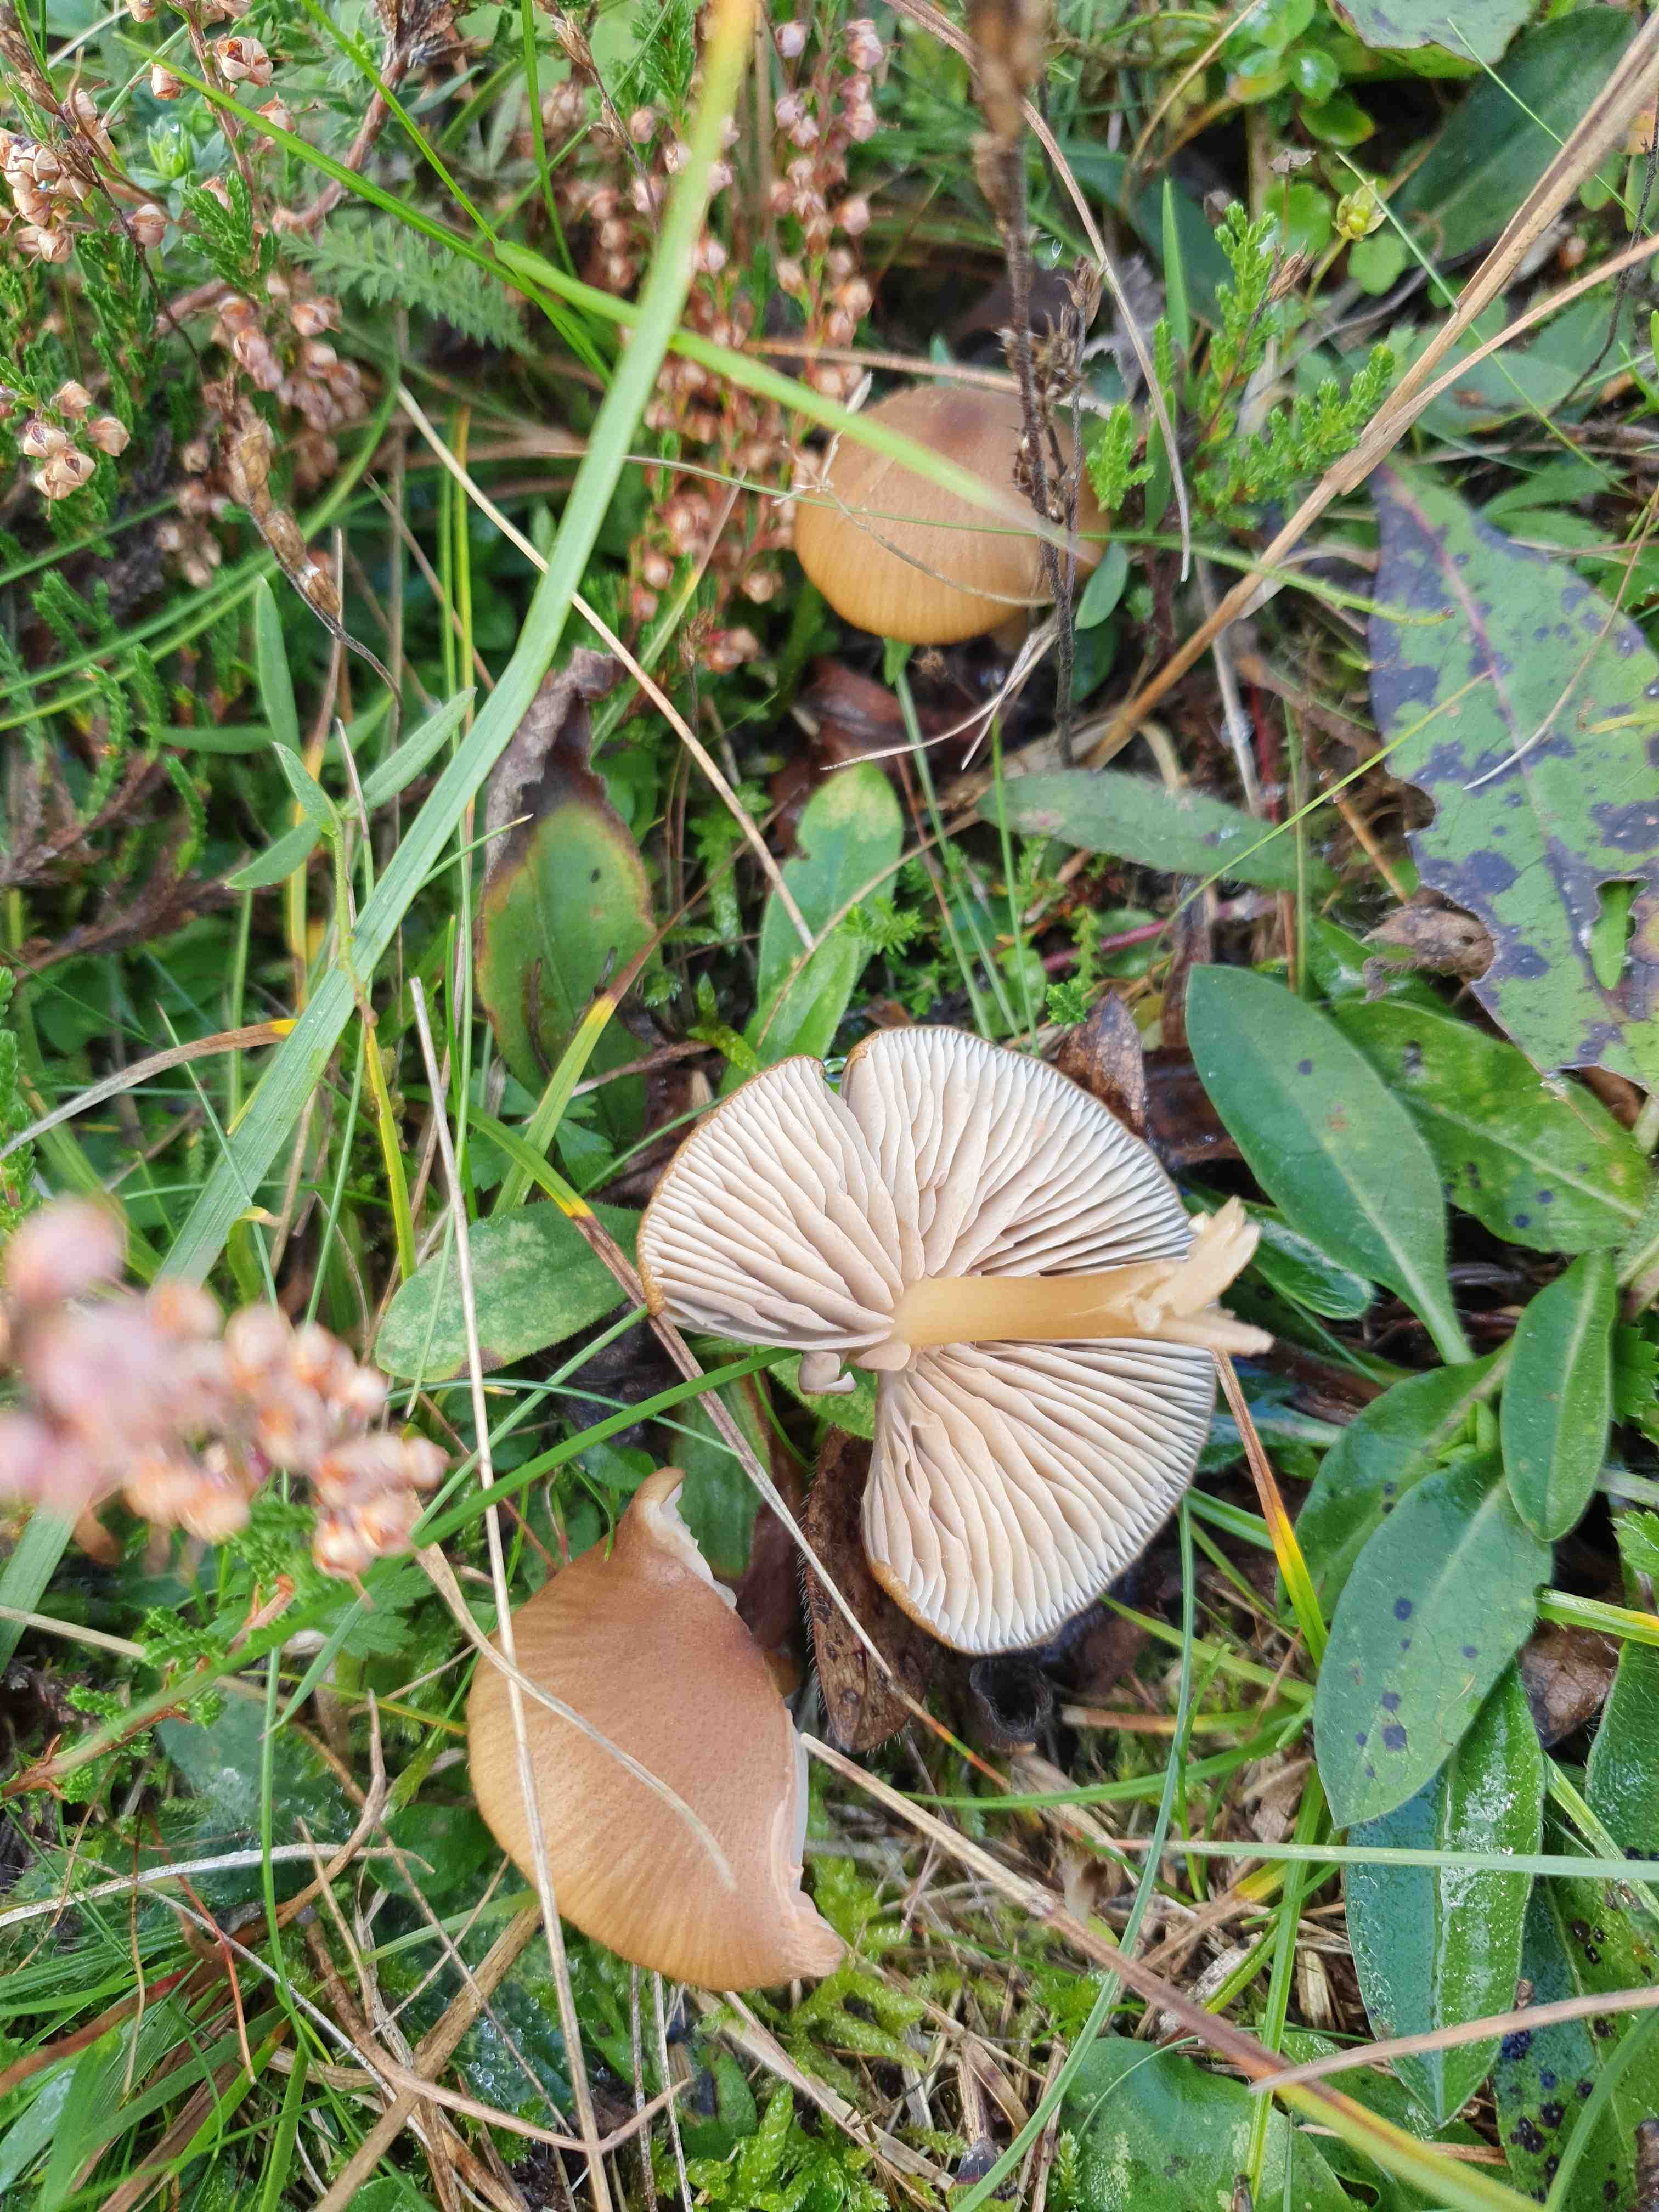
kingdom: Fungi
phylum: Basidiomycota
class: Agaricomycetes
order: Agaricales
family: Entolomataceae
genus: Entoloma
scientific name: Entoloma formosum
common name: brungul rødblad
